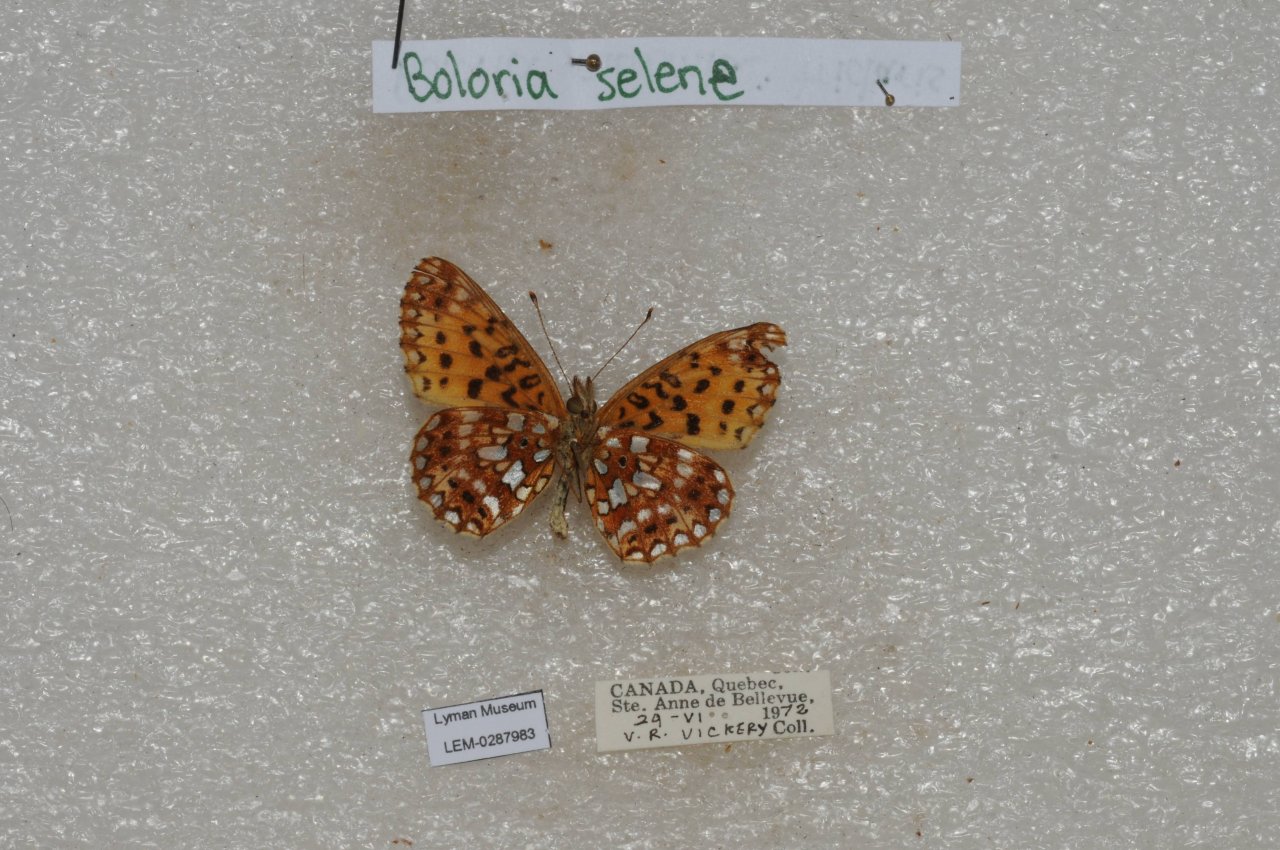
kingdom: Animalia
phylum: Arthropoda
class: Insecta
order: Lepidoptera
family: Nymphalidae
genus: Boloria
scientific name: Boloria selene
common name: Silver-bordered Fritillary
